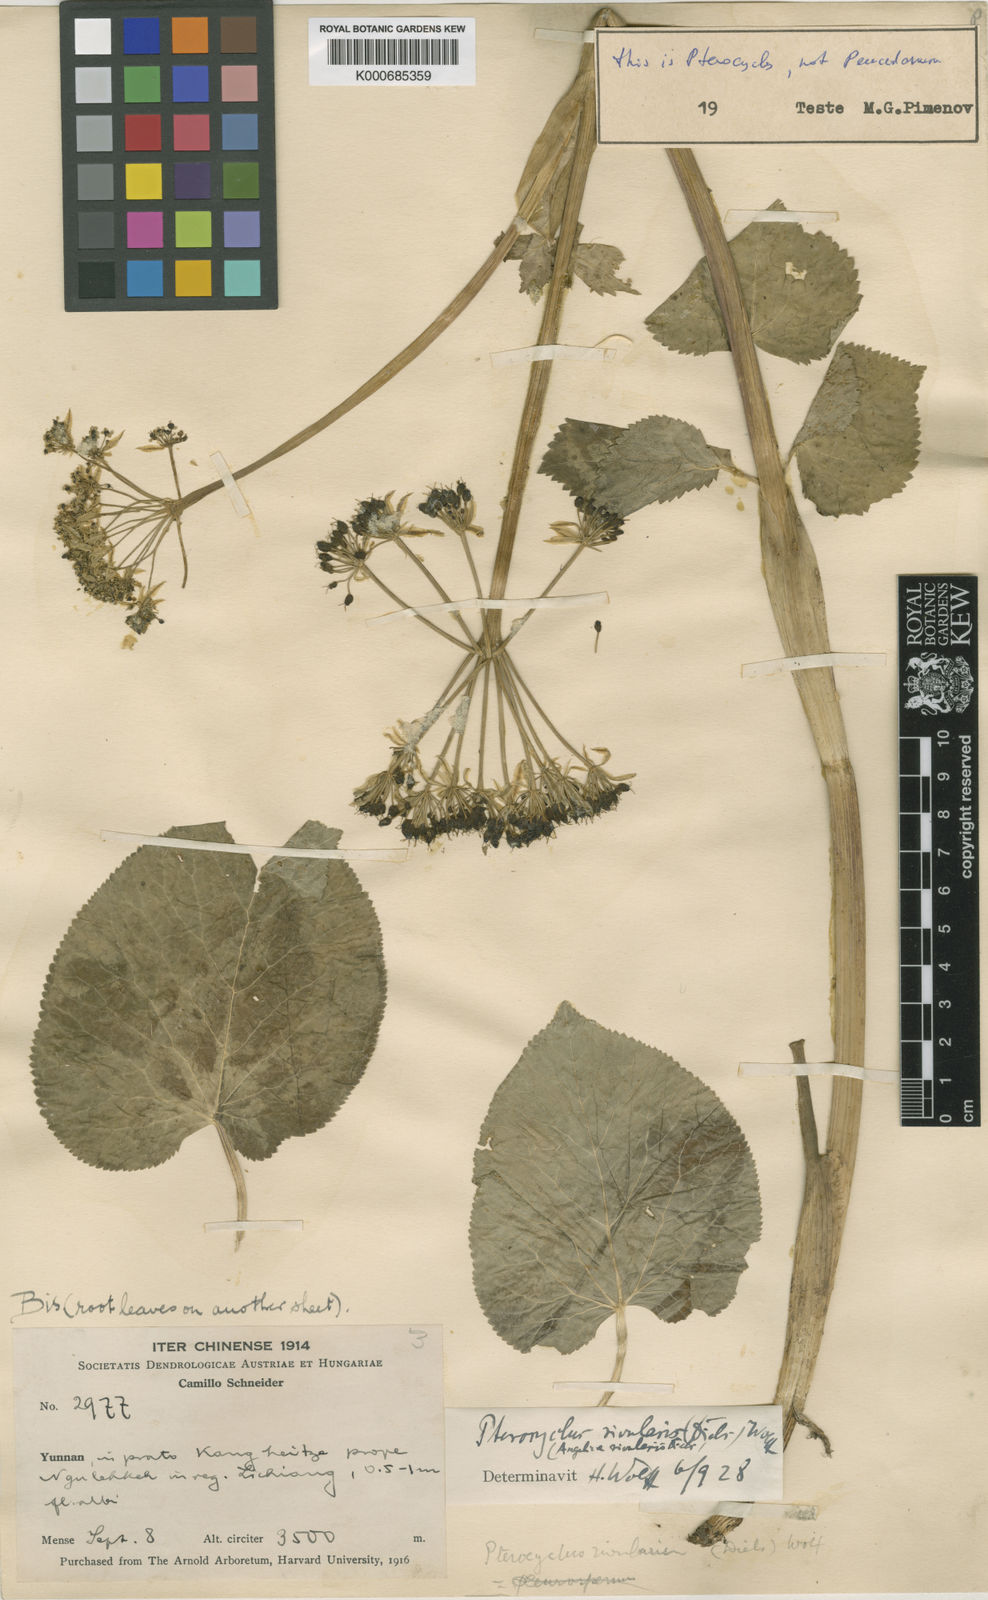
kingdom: Plantae
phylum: Tracheophyta
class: Magnoliopsida
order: Apiales
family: Apiaceae
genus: Pterocyclus
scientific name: Pterocyclus rivulorum
